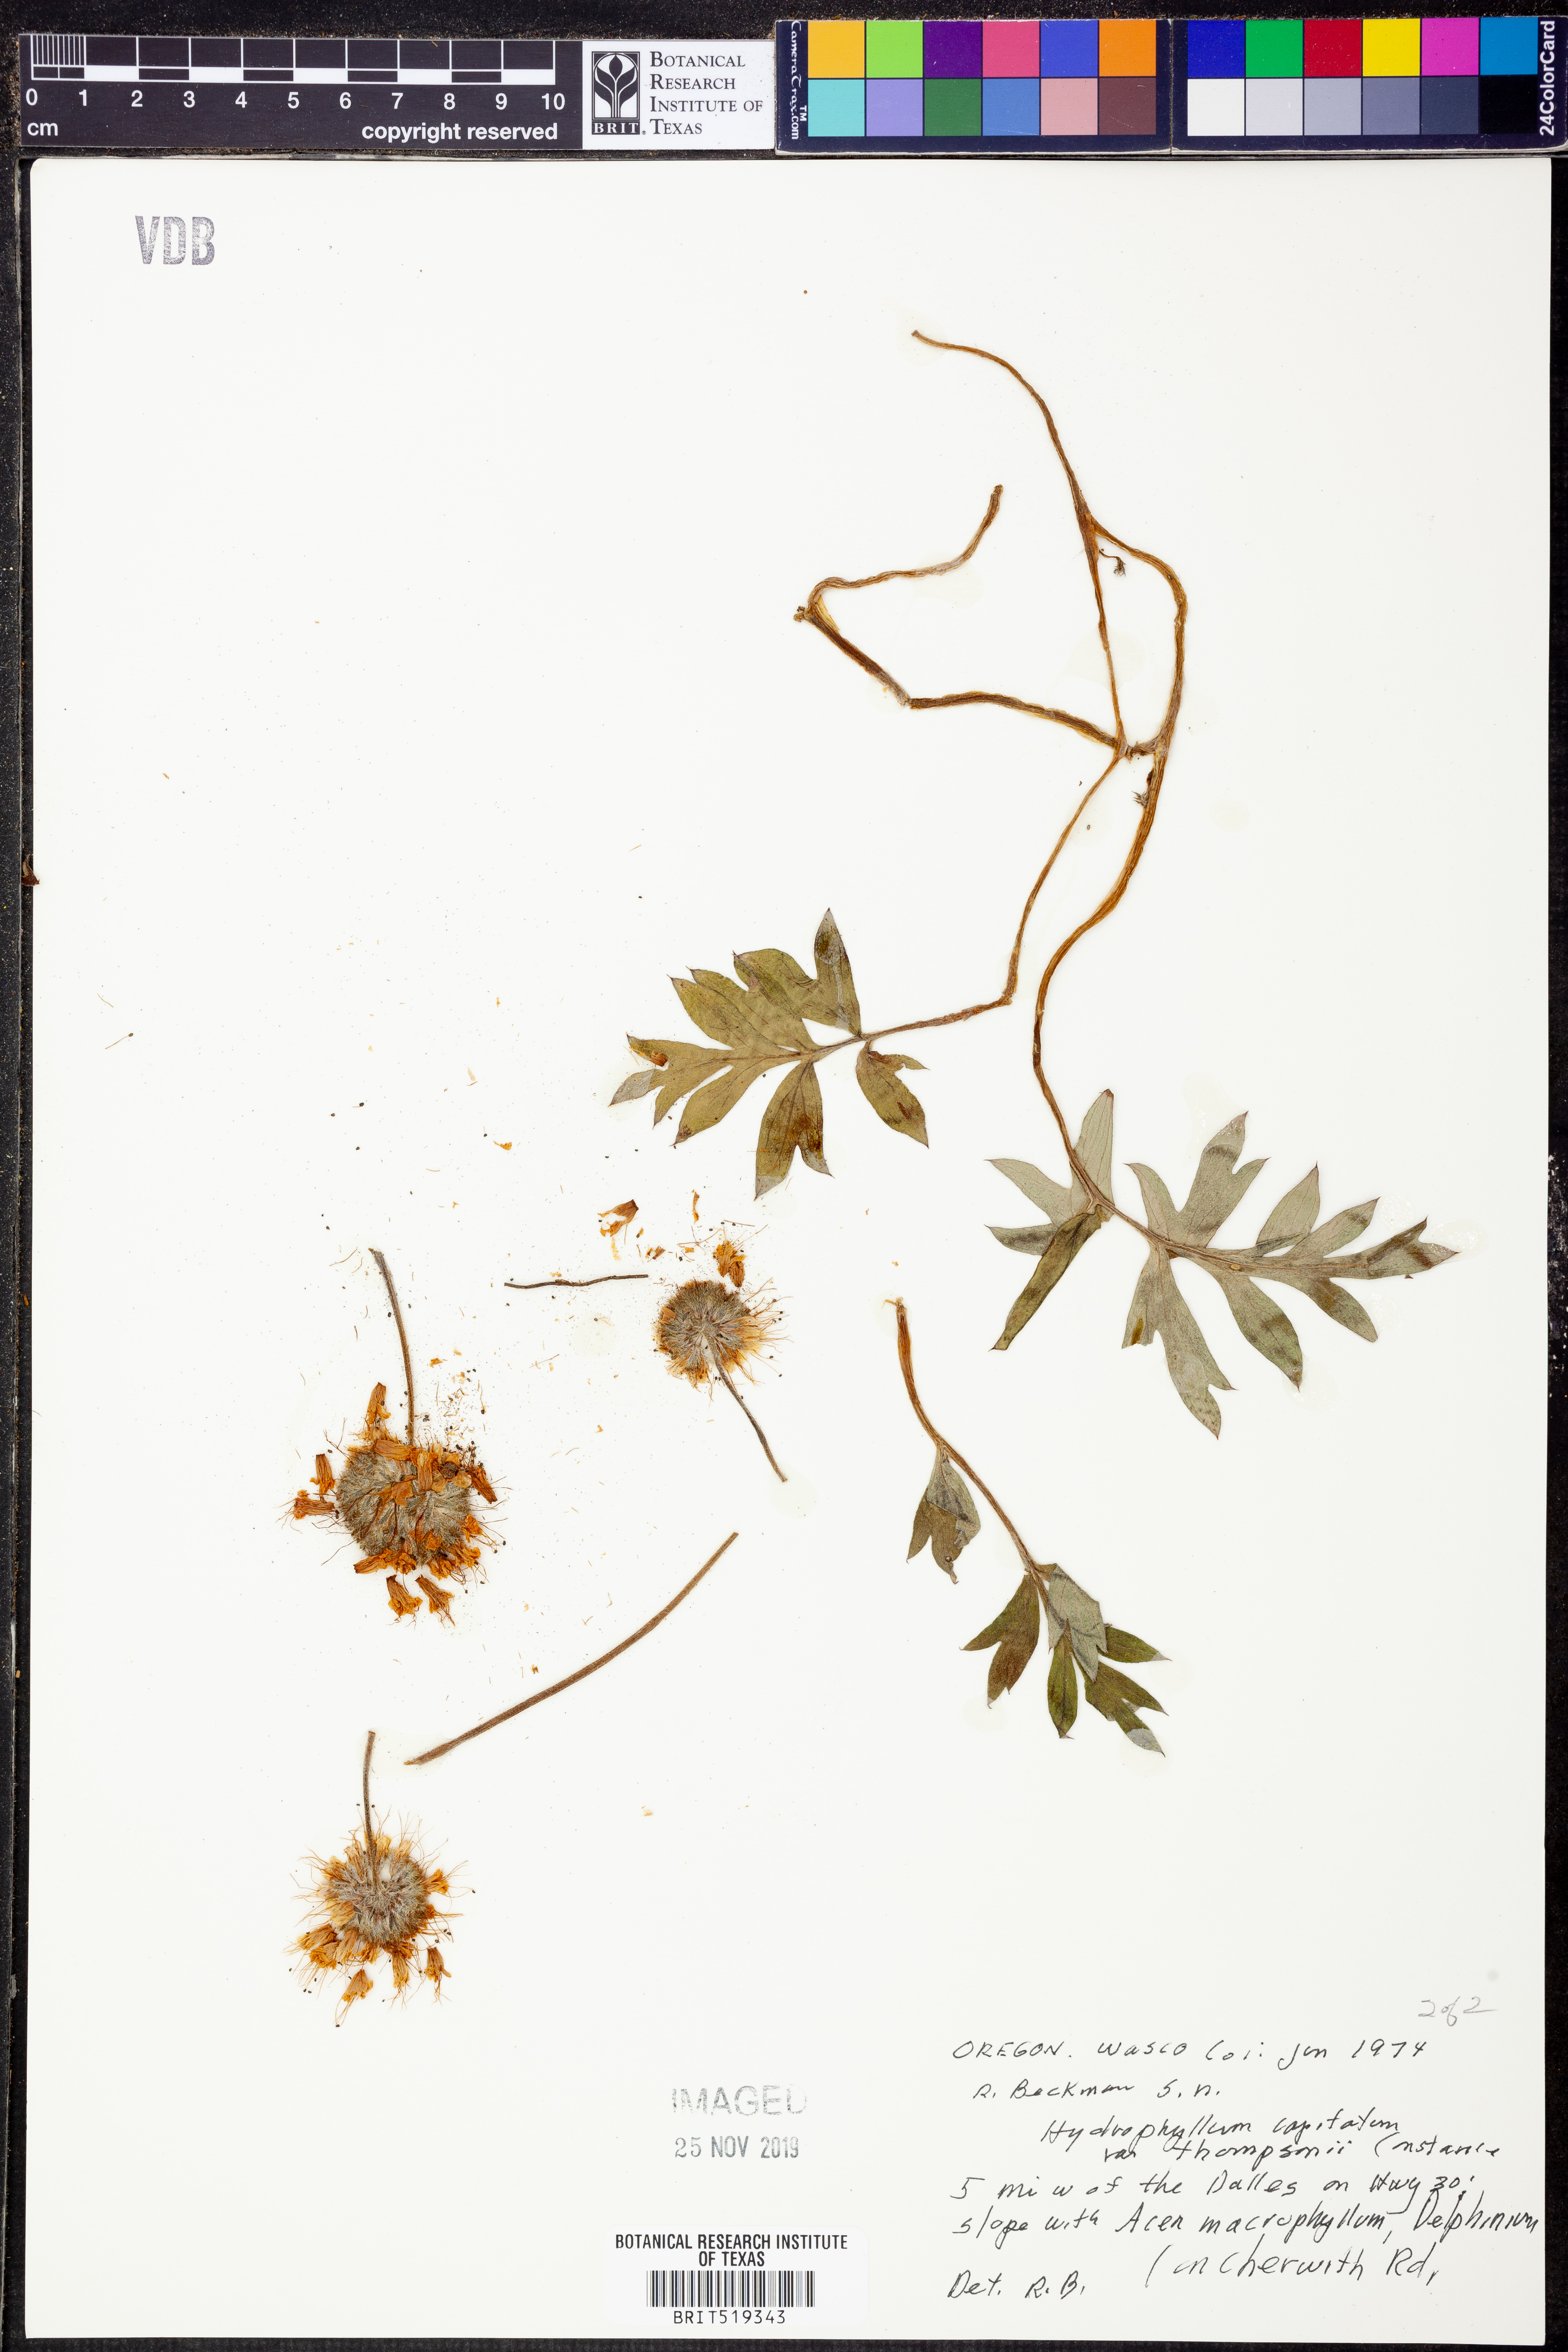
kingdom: Plantae
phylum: Tracheophyta
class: Magnoliopsida
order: Boraginales
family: Hydrophyllaceae
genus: Hydrophyllum
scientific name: Hydrophyllum capitatum
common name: Woollen-breeches
